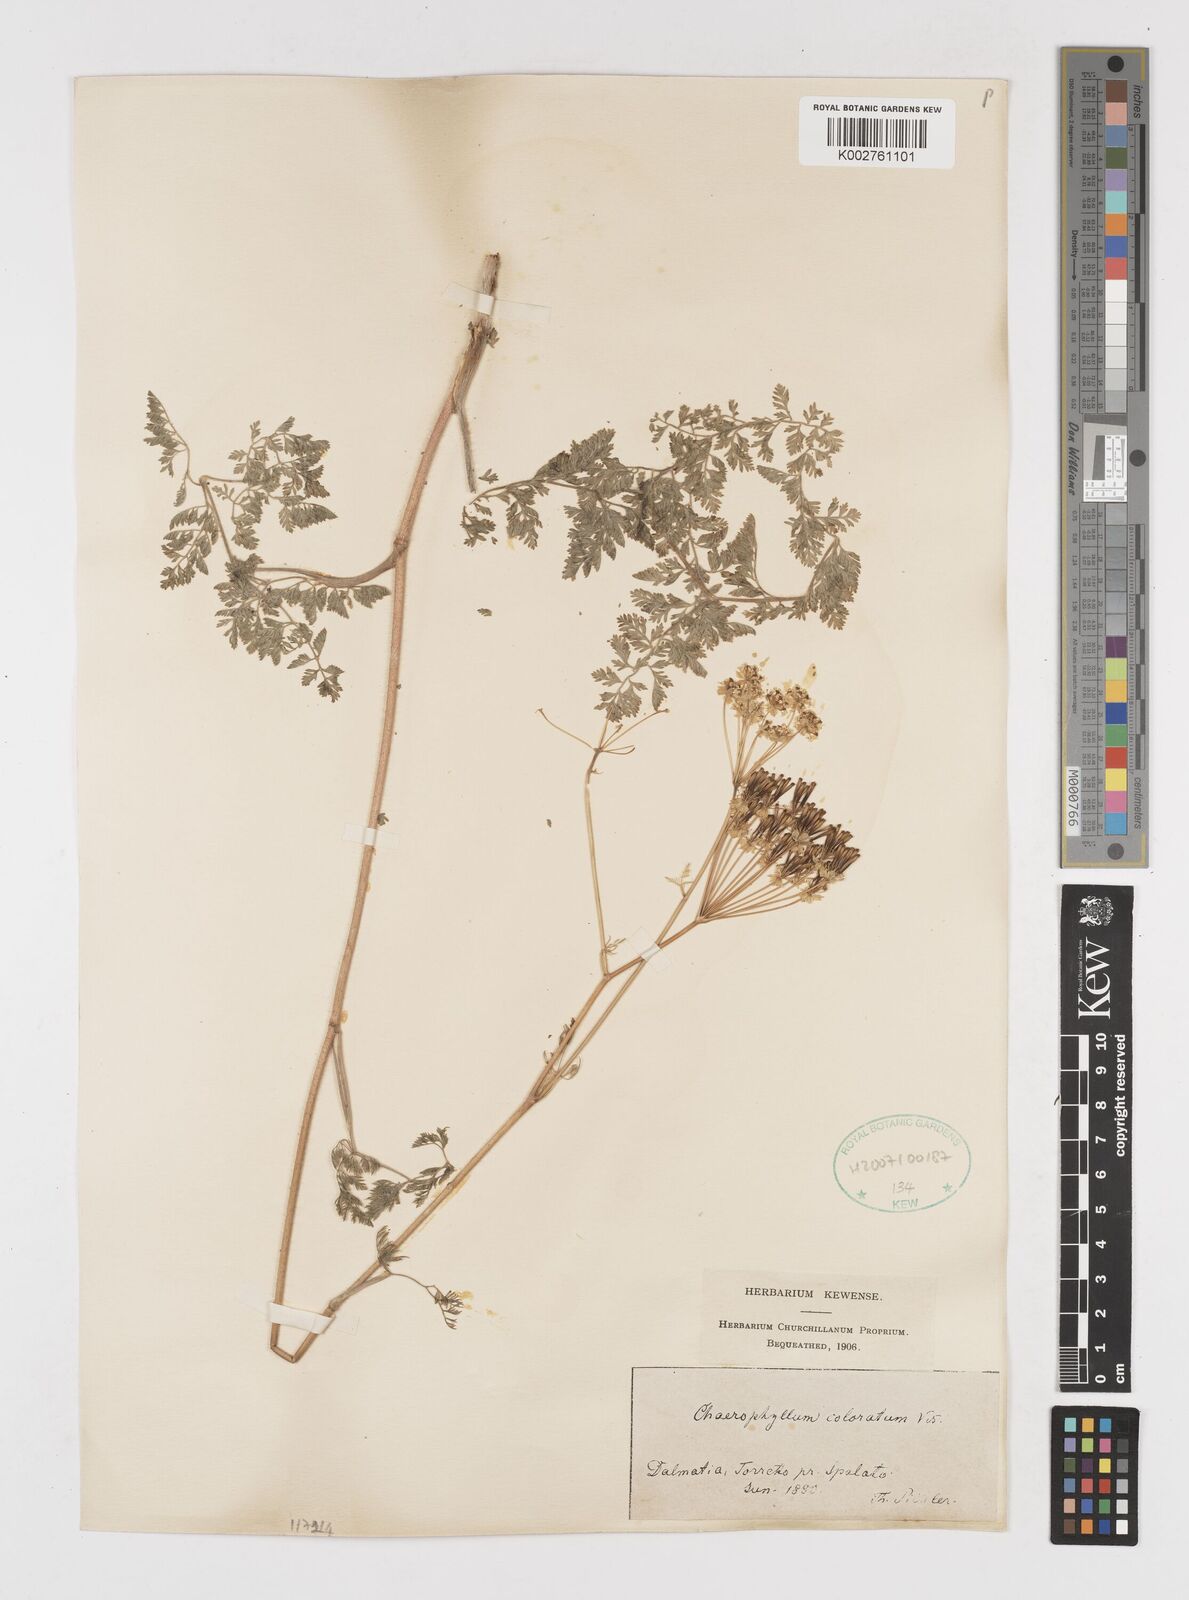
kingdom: Plantae
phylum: Tracheophyta
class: Magnoliopsida
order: Apiales
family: Apiaceae
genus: Chaerophyllum
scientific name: Chaerophyllum coloratum
